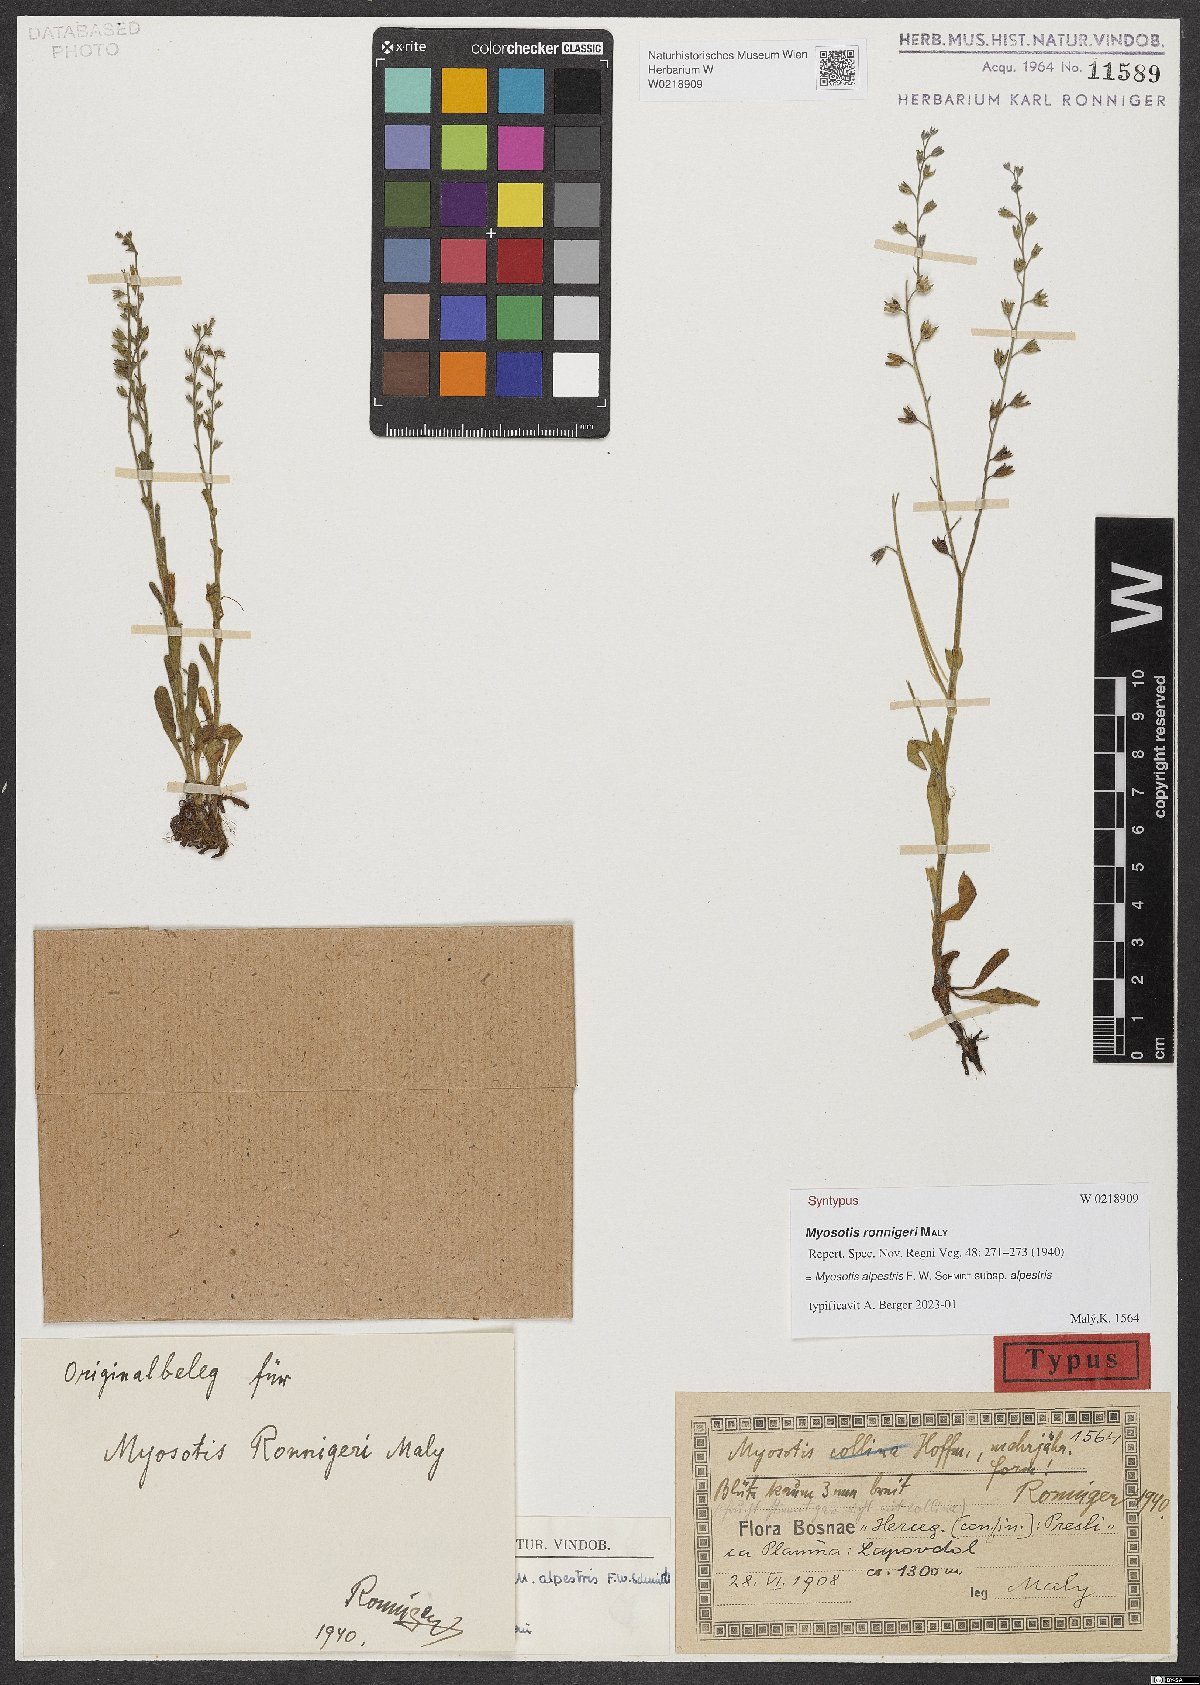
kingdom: Plantae
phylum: Tracheophyta
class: Magnoliopsida
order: Boraginales
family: Boraginaceae
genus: Myosotis
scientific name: Myosotis alpestris
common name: Alpine forget-me-not
